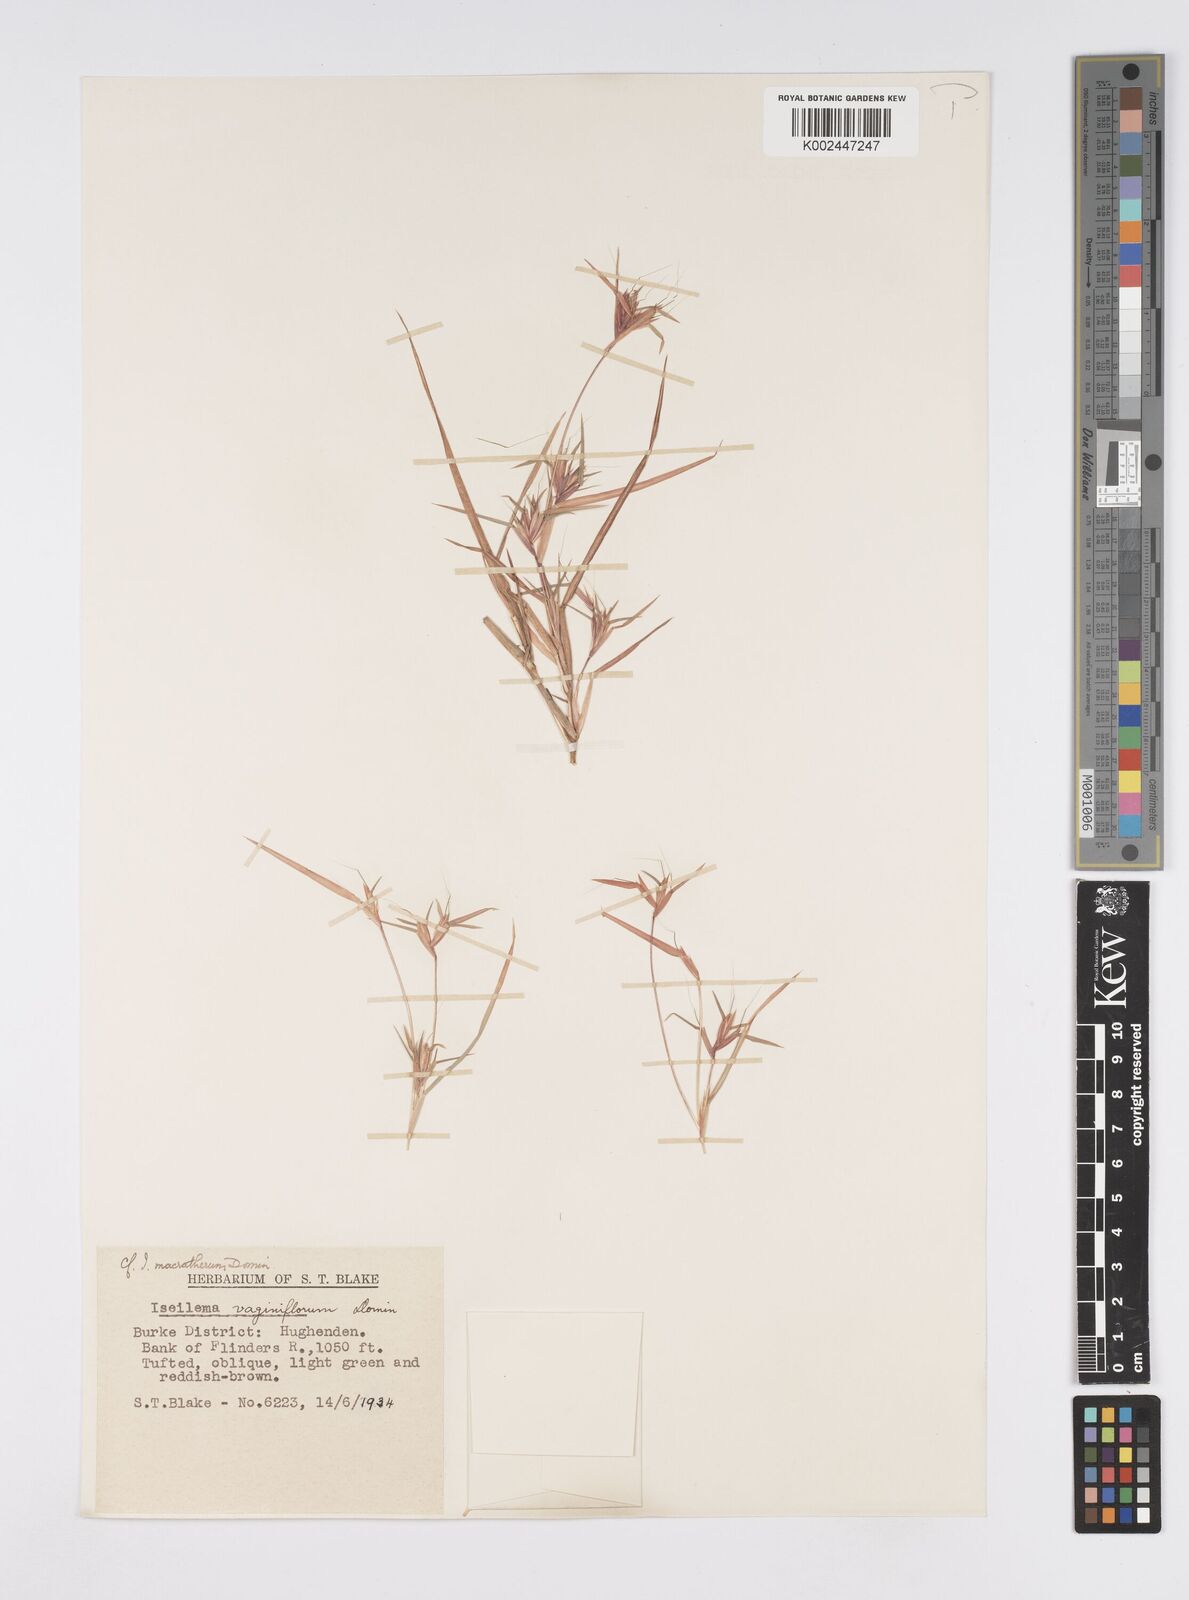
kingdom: Plantae
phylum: Tracheophyta
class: Liliopsida
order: Poales
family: Poaceae
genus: Iseilema
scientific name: Iseilema macratherum
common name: Bull flinders grass
